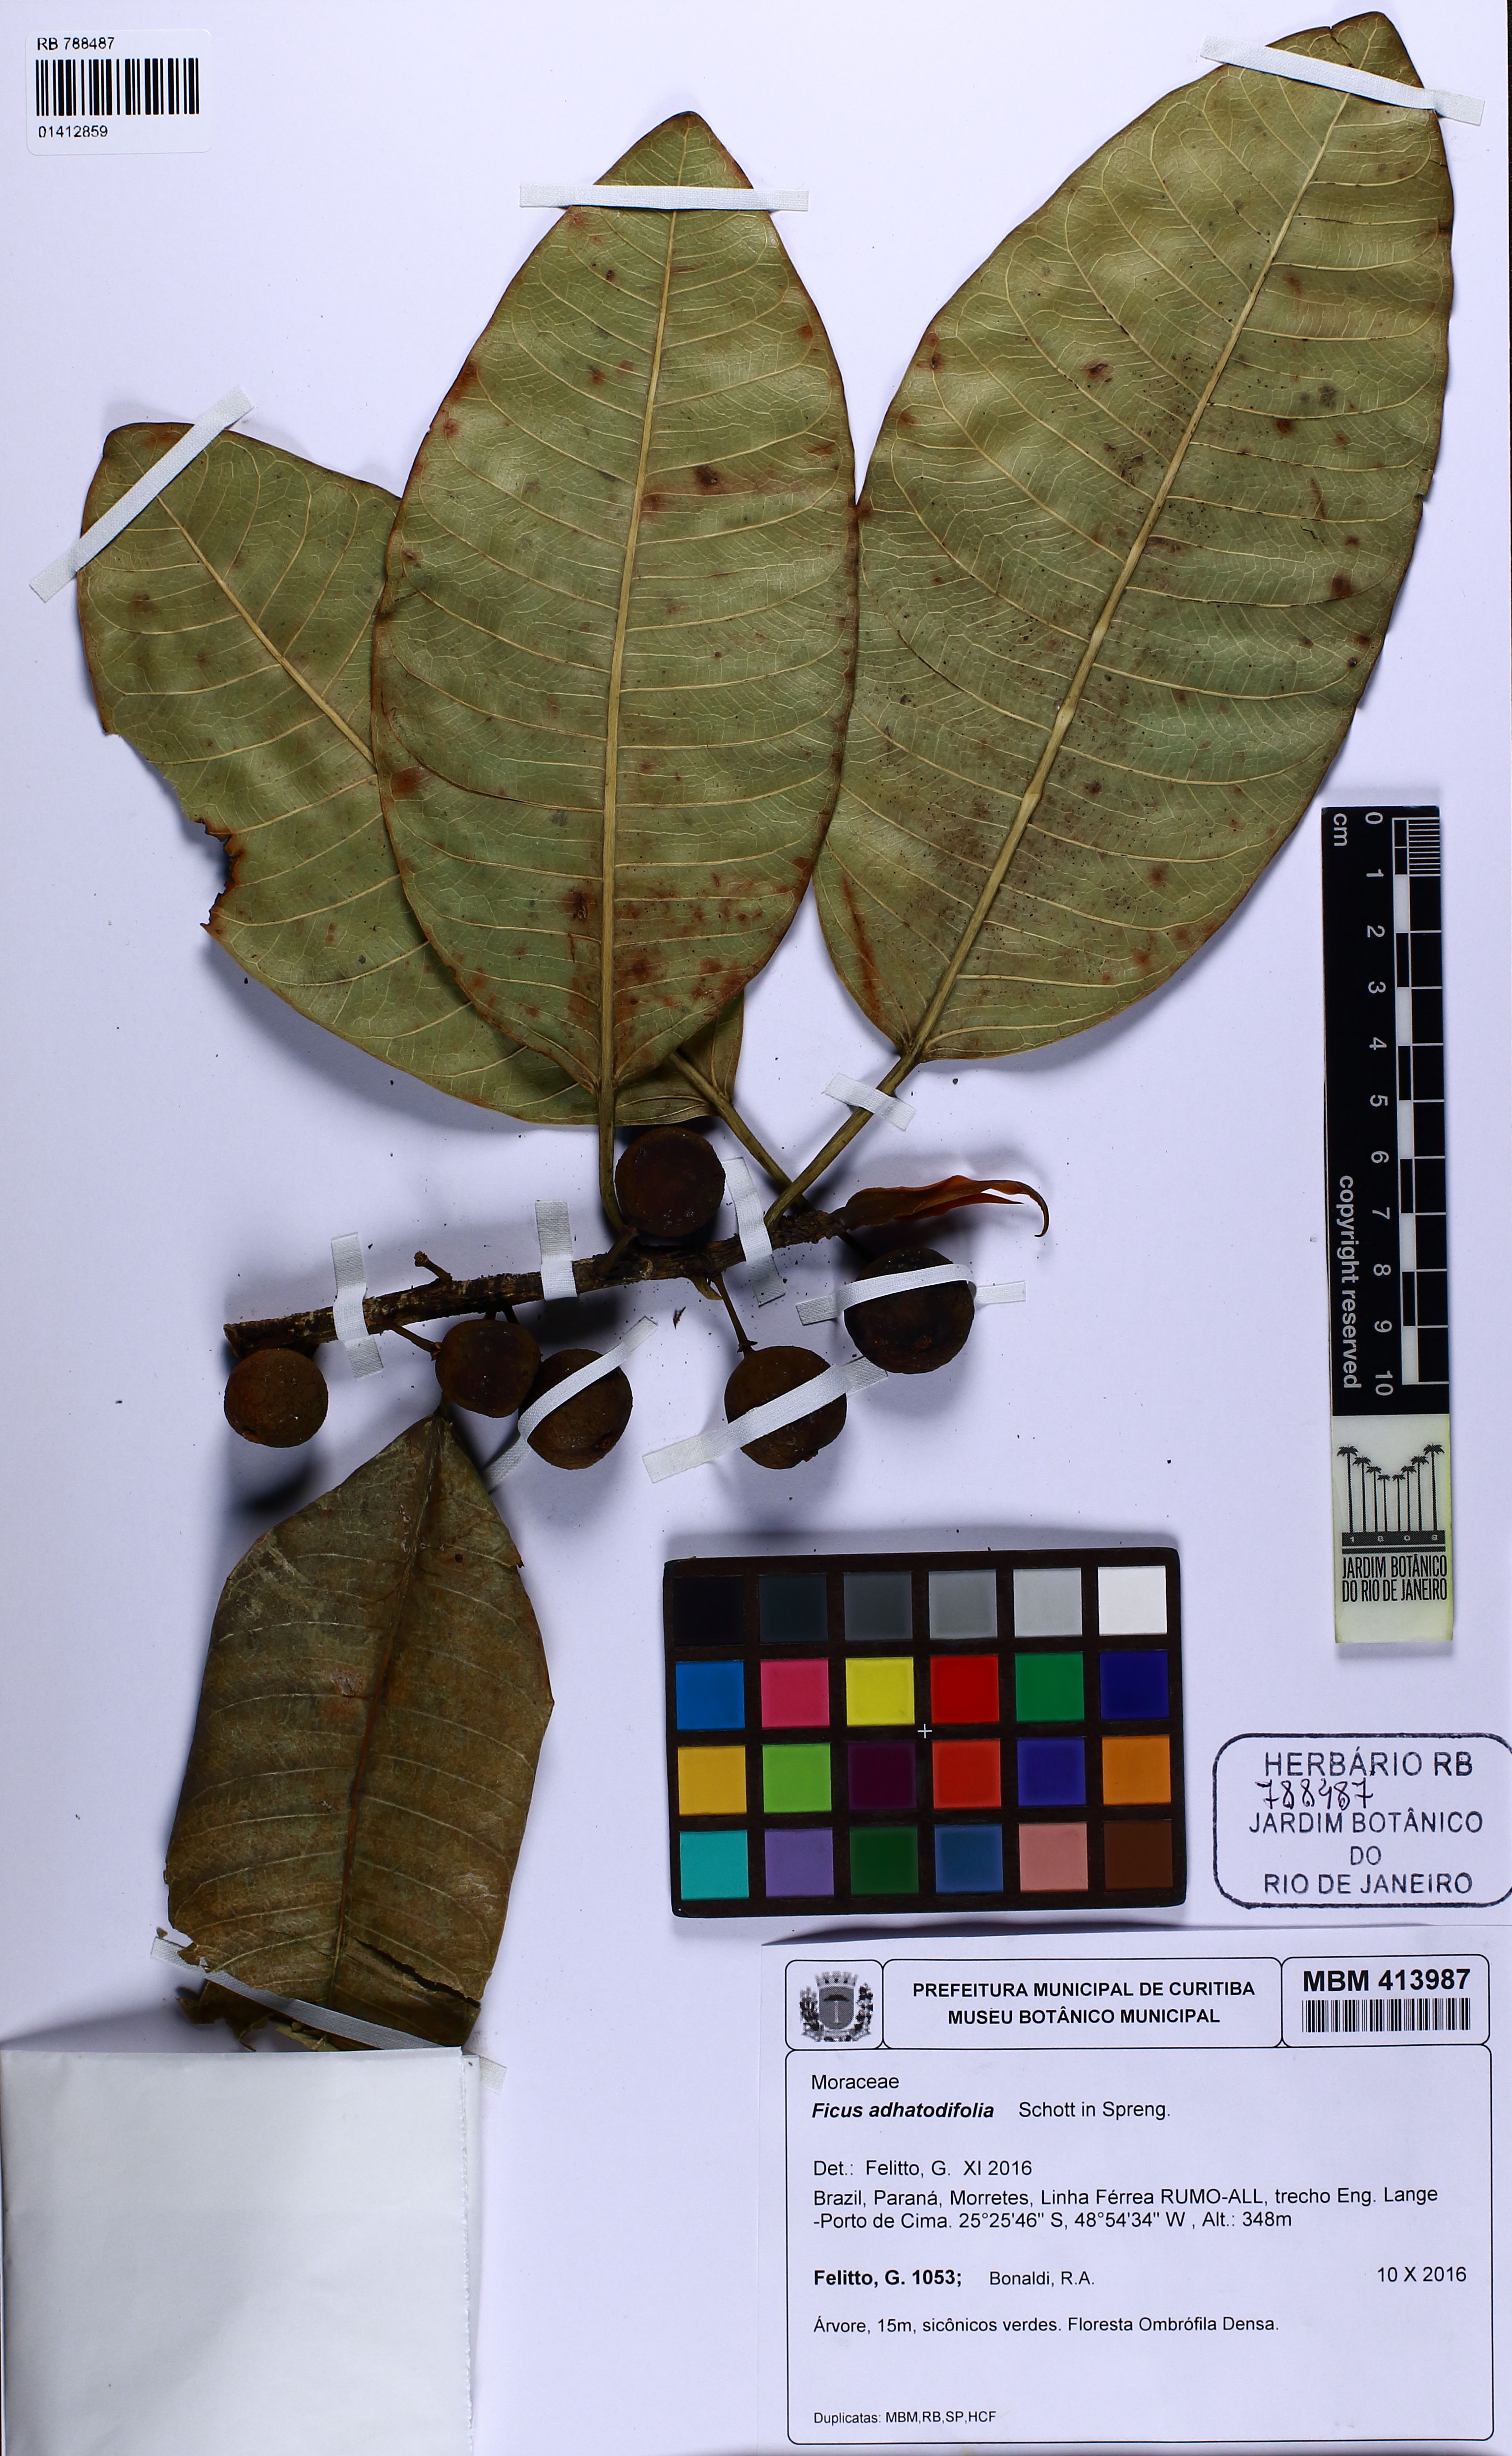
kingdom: Plantae
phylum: Tracheophyta
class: Magnoliopsida
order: Rosales
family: Moraceae
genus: Ficus
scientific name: Ficus adhatodifolia
